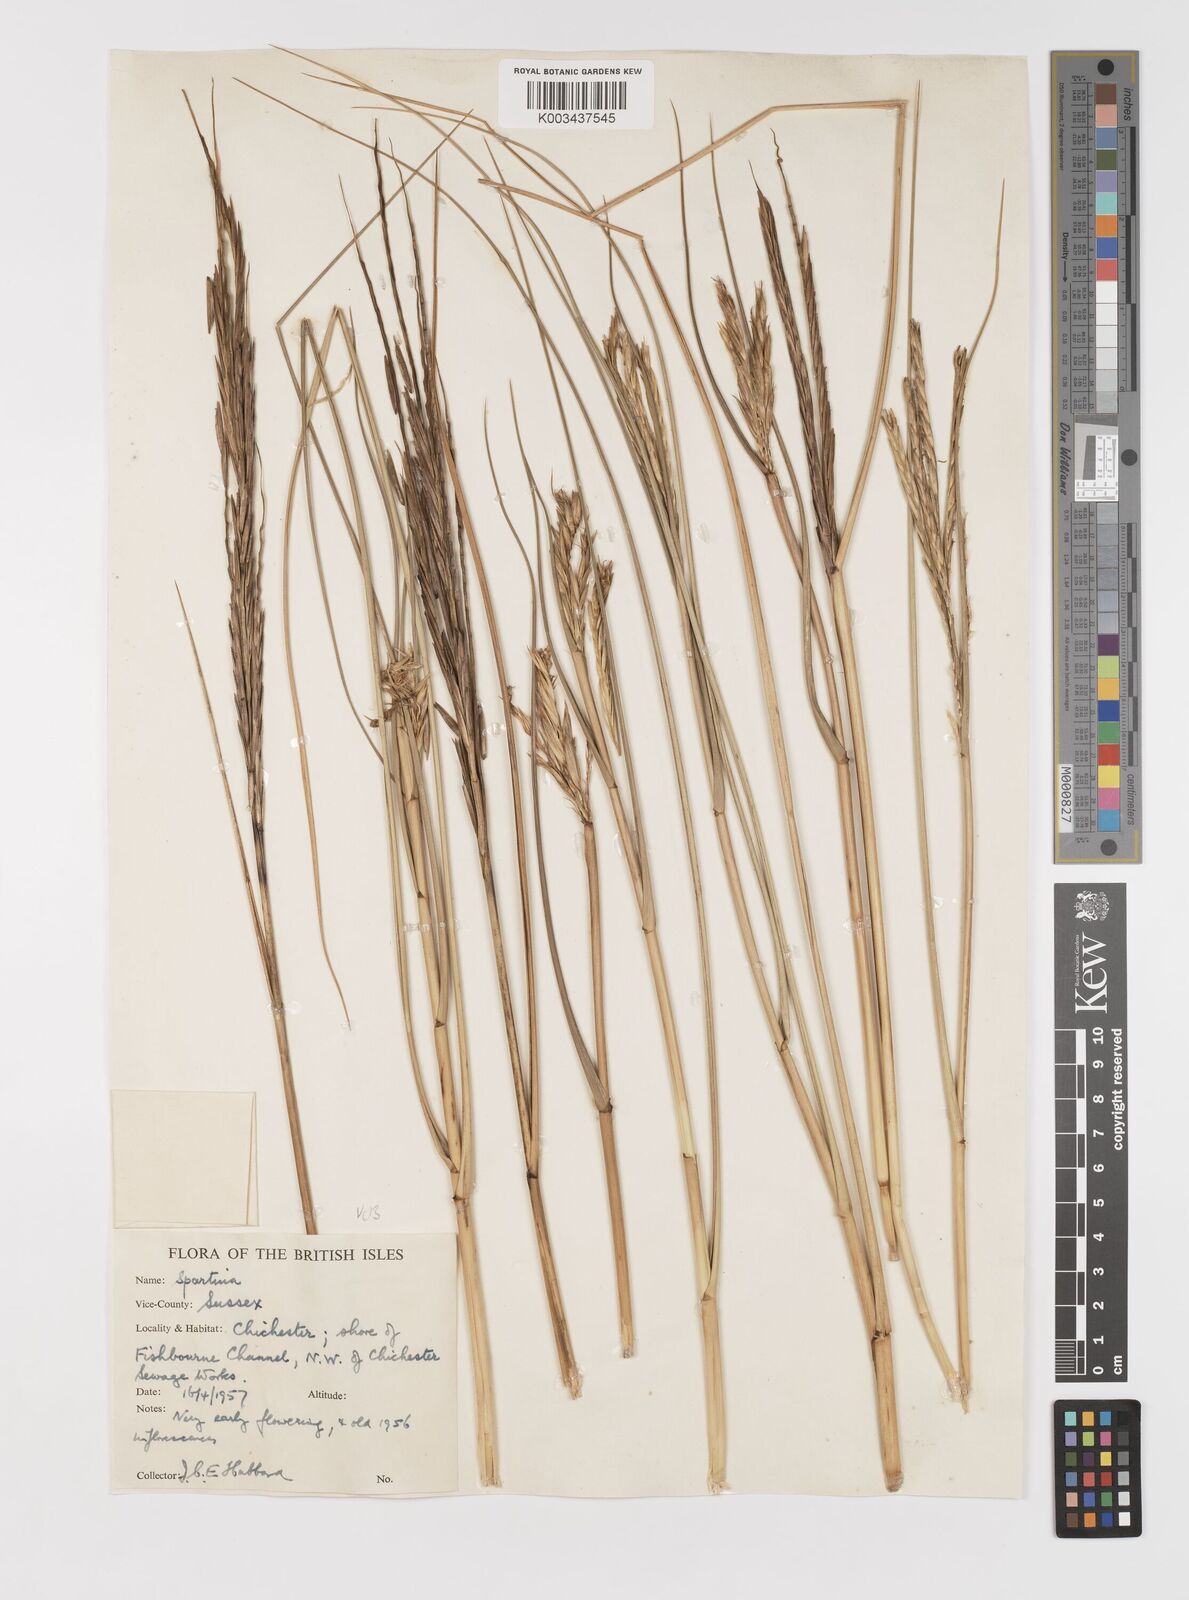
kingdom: Plantae
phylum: Tracheophyta
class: Liliopsida
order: Poales
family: Poaceae
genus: Sporobolus
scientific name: Sporobolus anglicus
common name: English cordgrass
